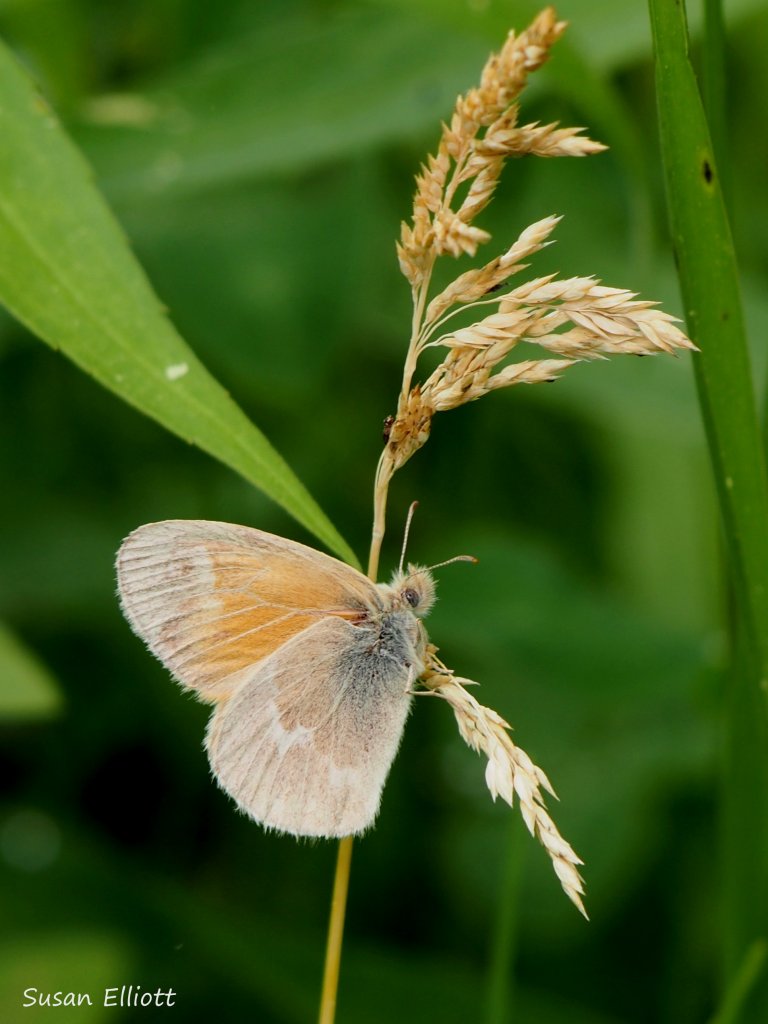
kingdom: Animalia
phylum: Arthropoda
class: Insecta
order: Lepidoptera
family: Nymphalidae
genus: Coenonympha
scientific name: Coenonympha tullia
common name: Large Heath
